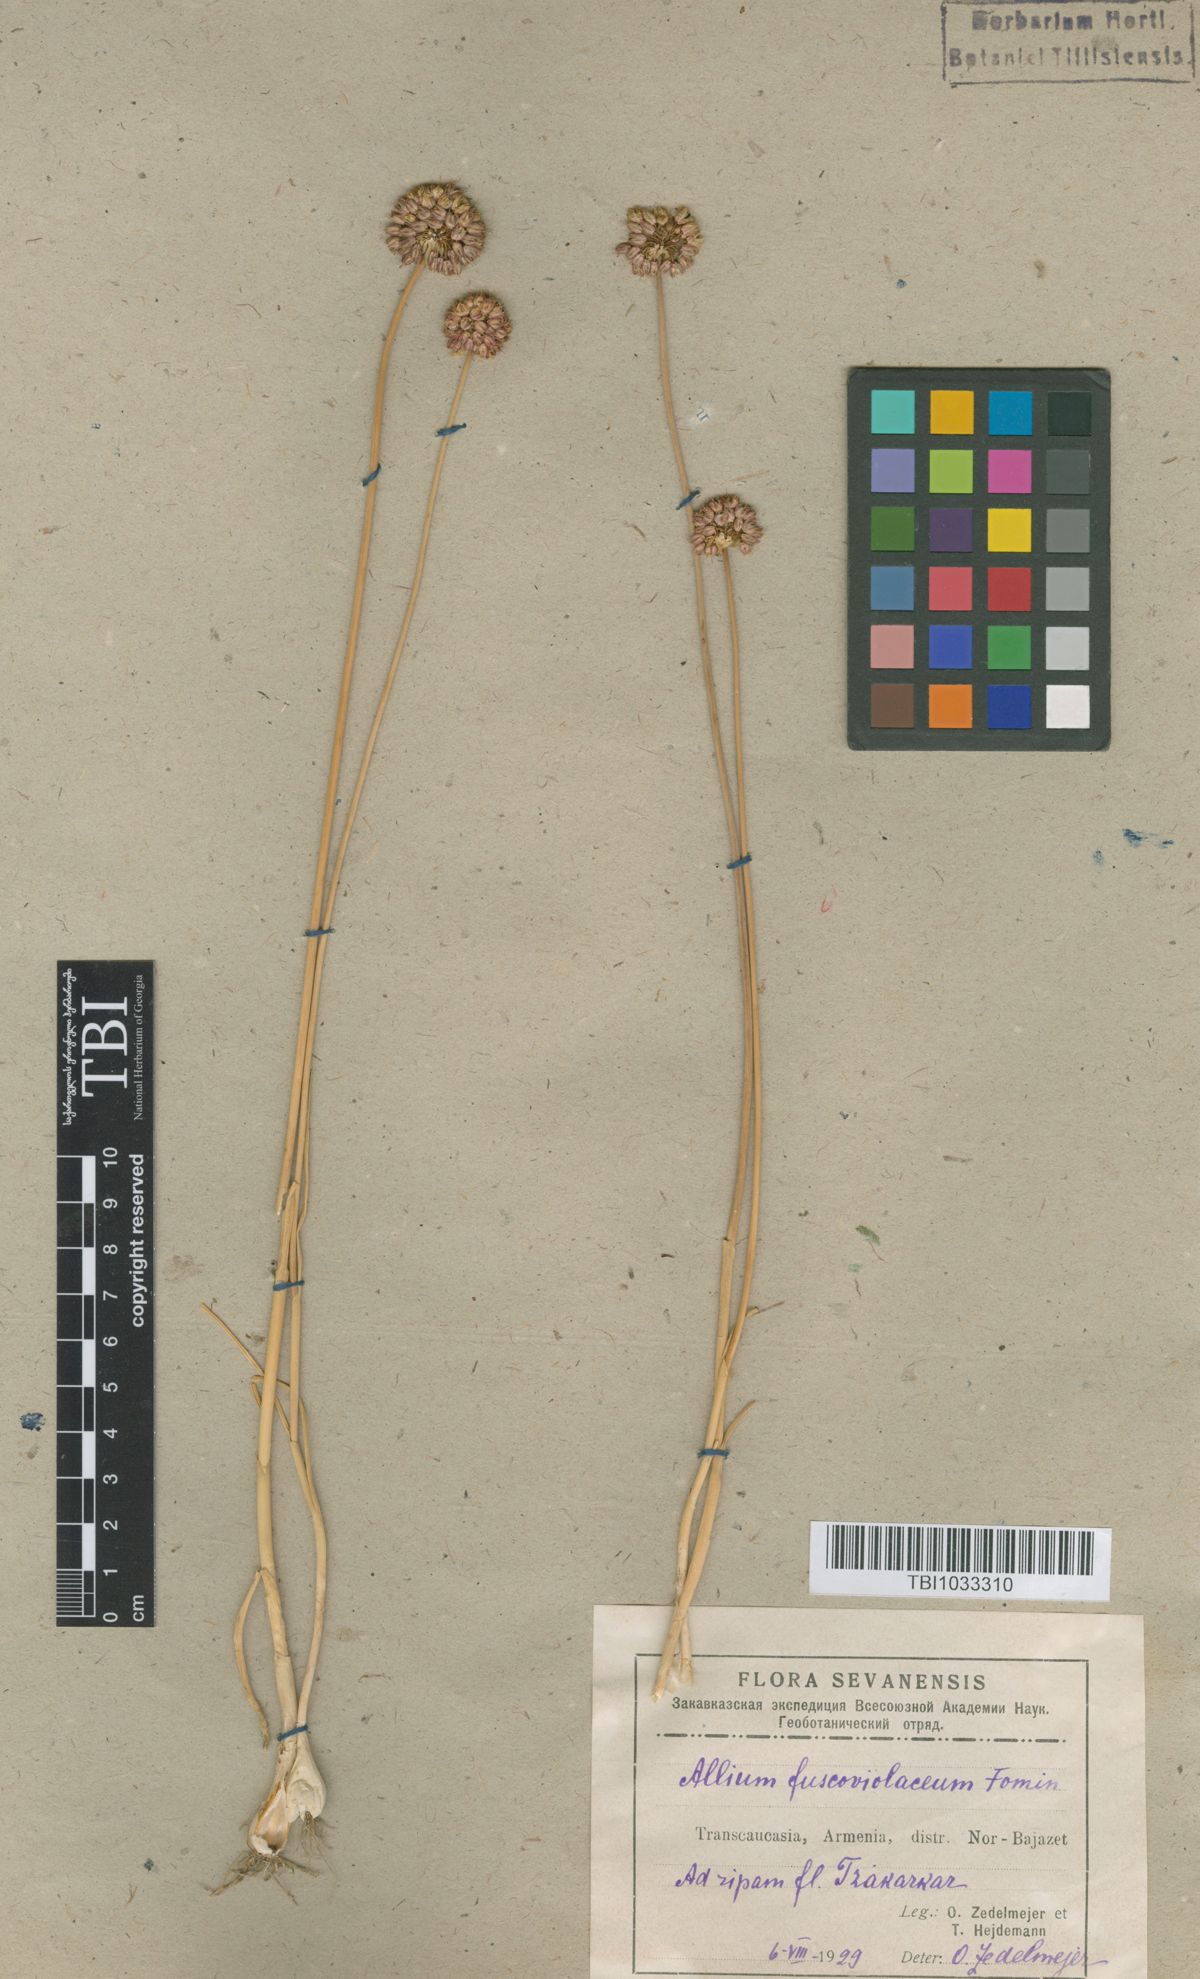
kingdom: Plantae
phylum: Tracheophyta
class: Liliopsida
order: Asparagales
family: Amaryllidaceae
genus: Allium
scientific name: Allium fuscoviolaceum
